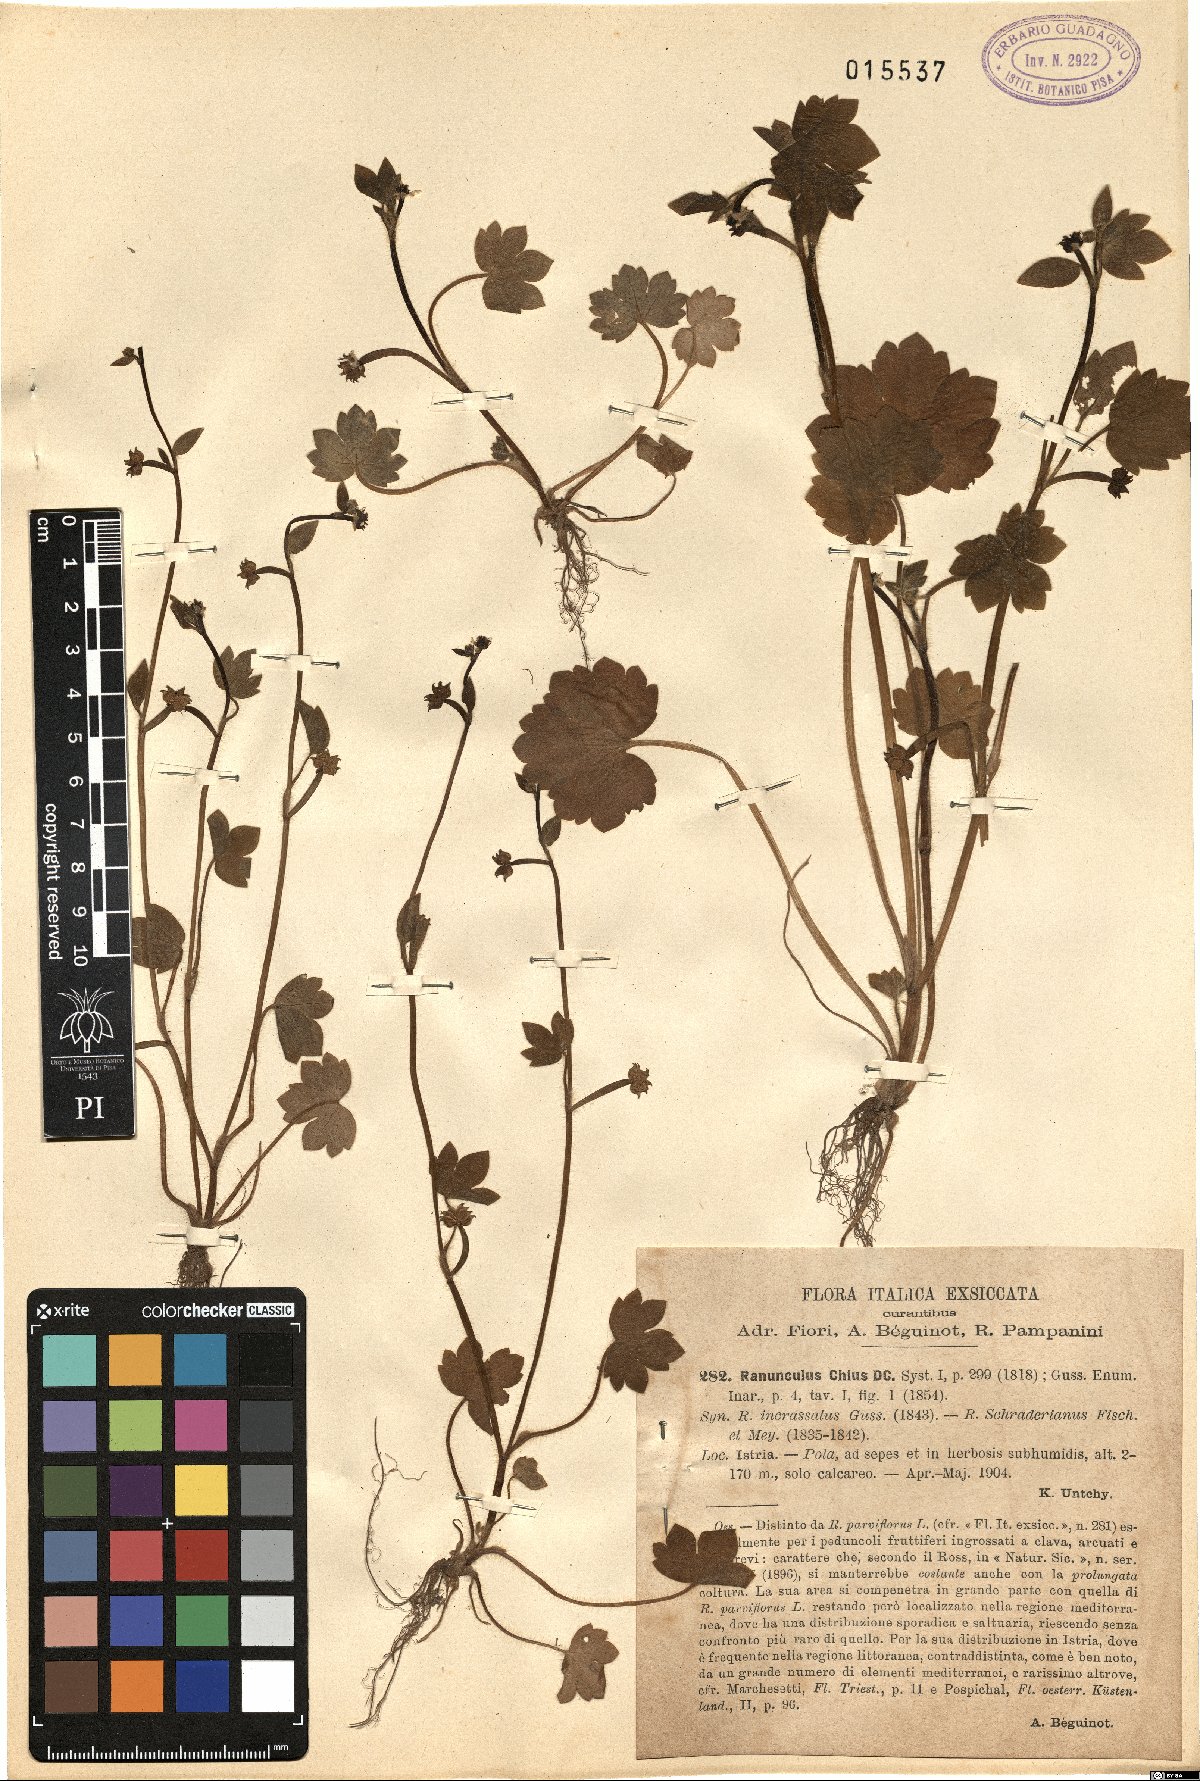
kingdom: Plantae
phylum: Tracheophyta
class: Magnoliopsida
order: Ranunculales
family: Ranunculaceae
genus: Ranunculus
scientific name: Ranunculus chius
